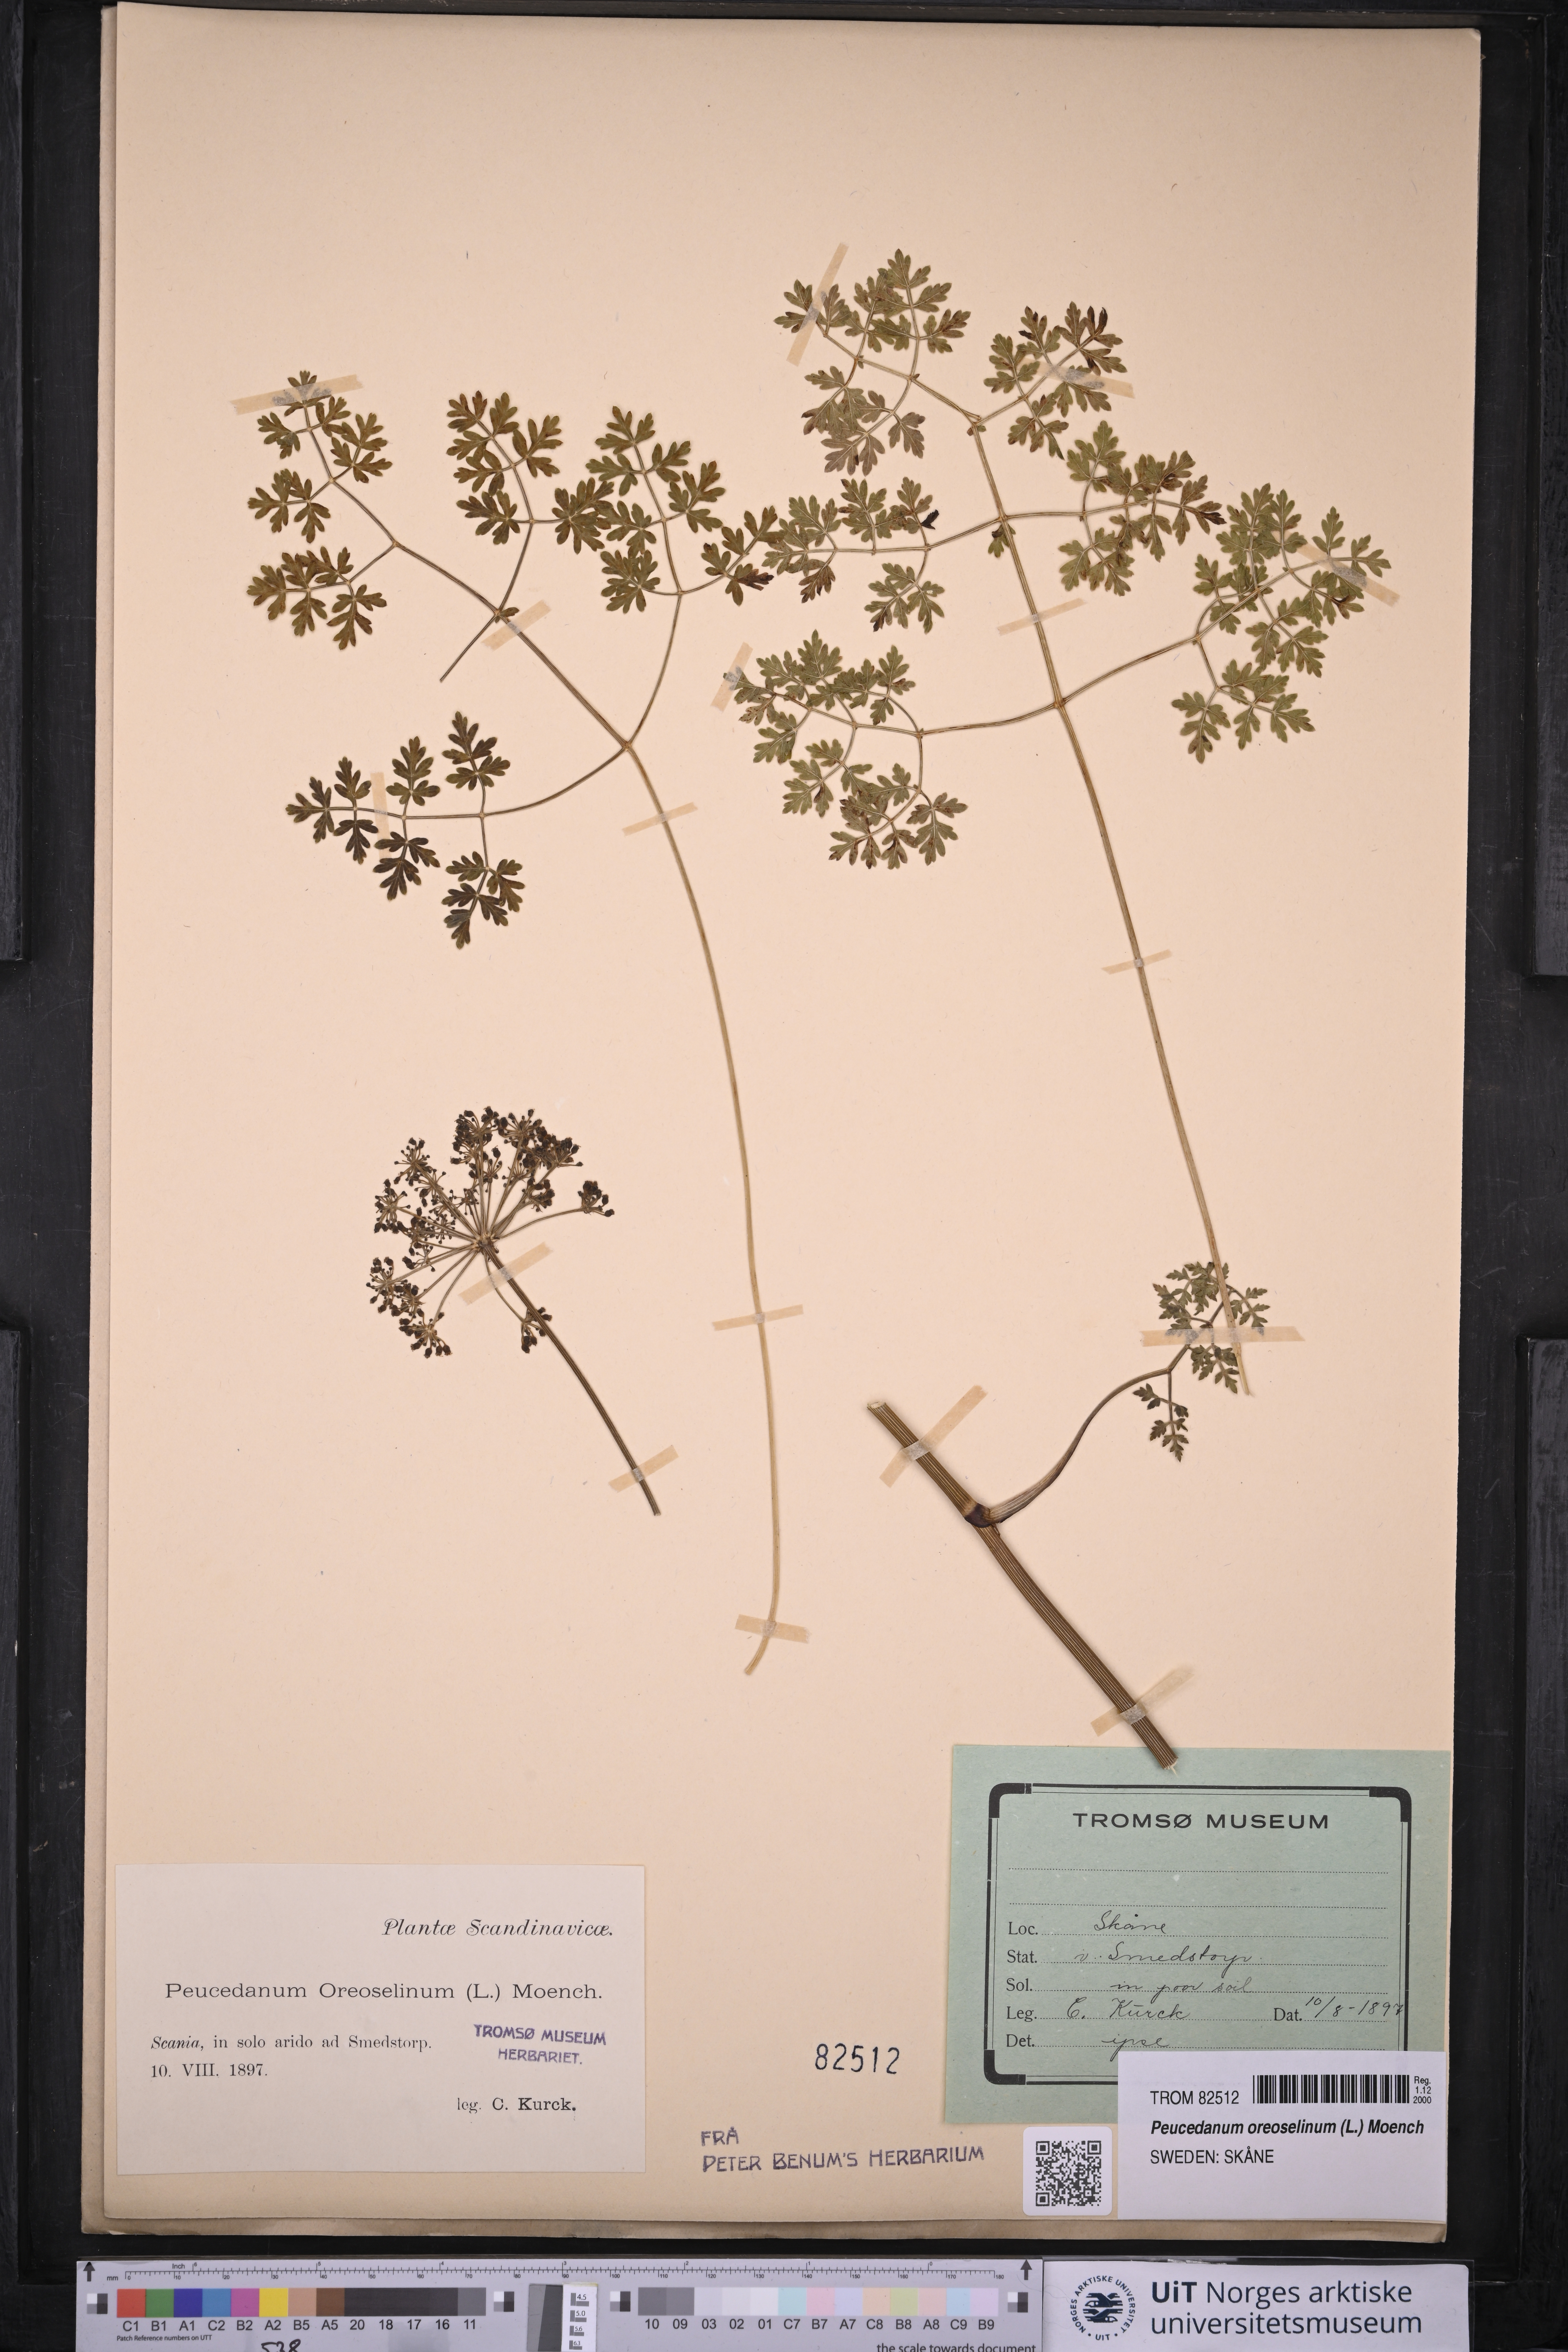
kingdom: Plantae
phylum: Tracheophyta
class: Magnoliopsida
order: Apiales
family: Apiaceae
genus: Oreoselinum
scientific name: Oreoselinum nigrum
